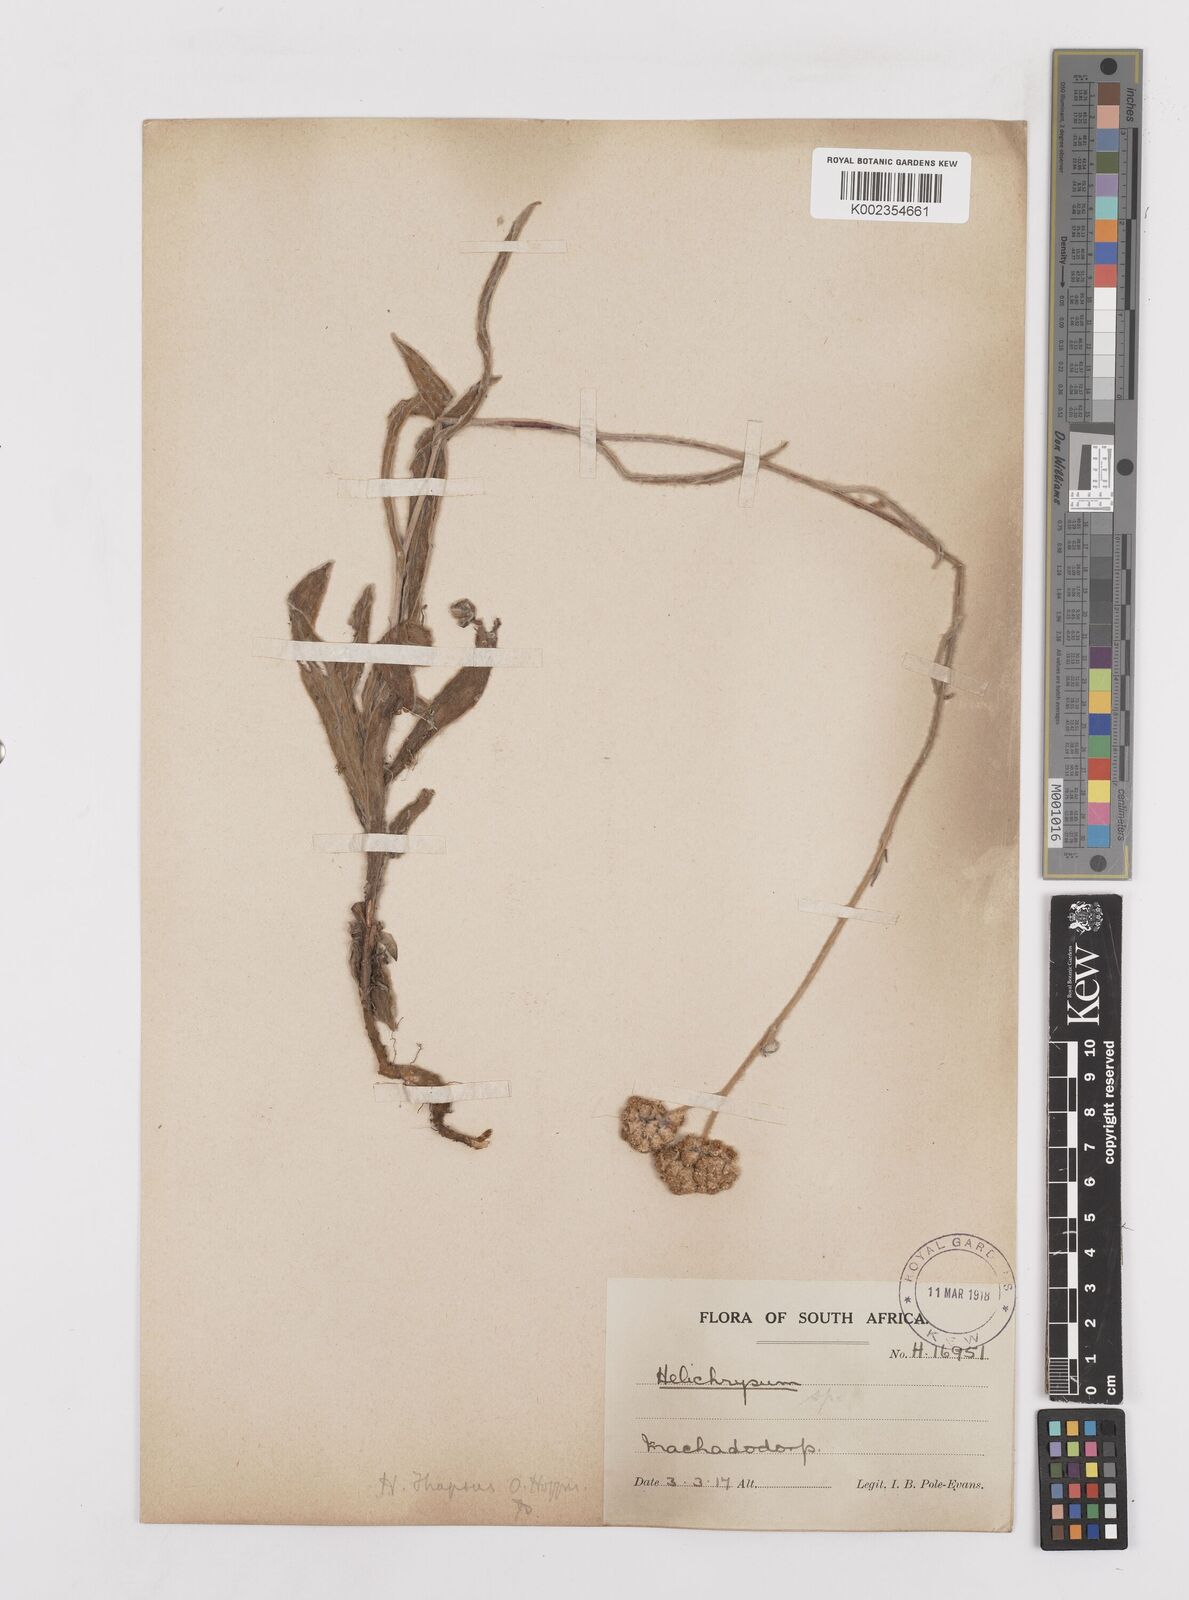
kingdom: Plantae
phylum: Tracheophyta
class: Magnoliopsida
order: Asterales
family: Asteraceae
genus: Helichrysum
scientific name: Helichrysum thapsus
